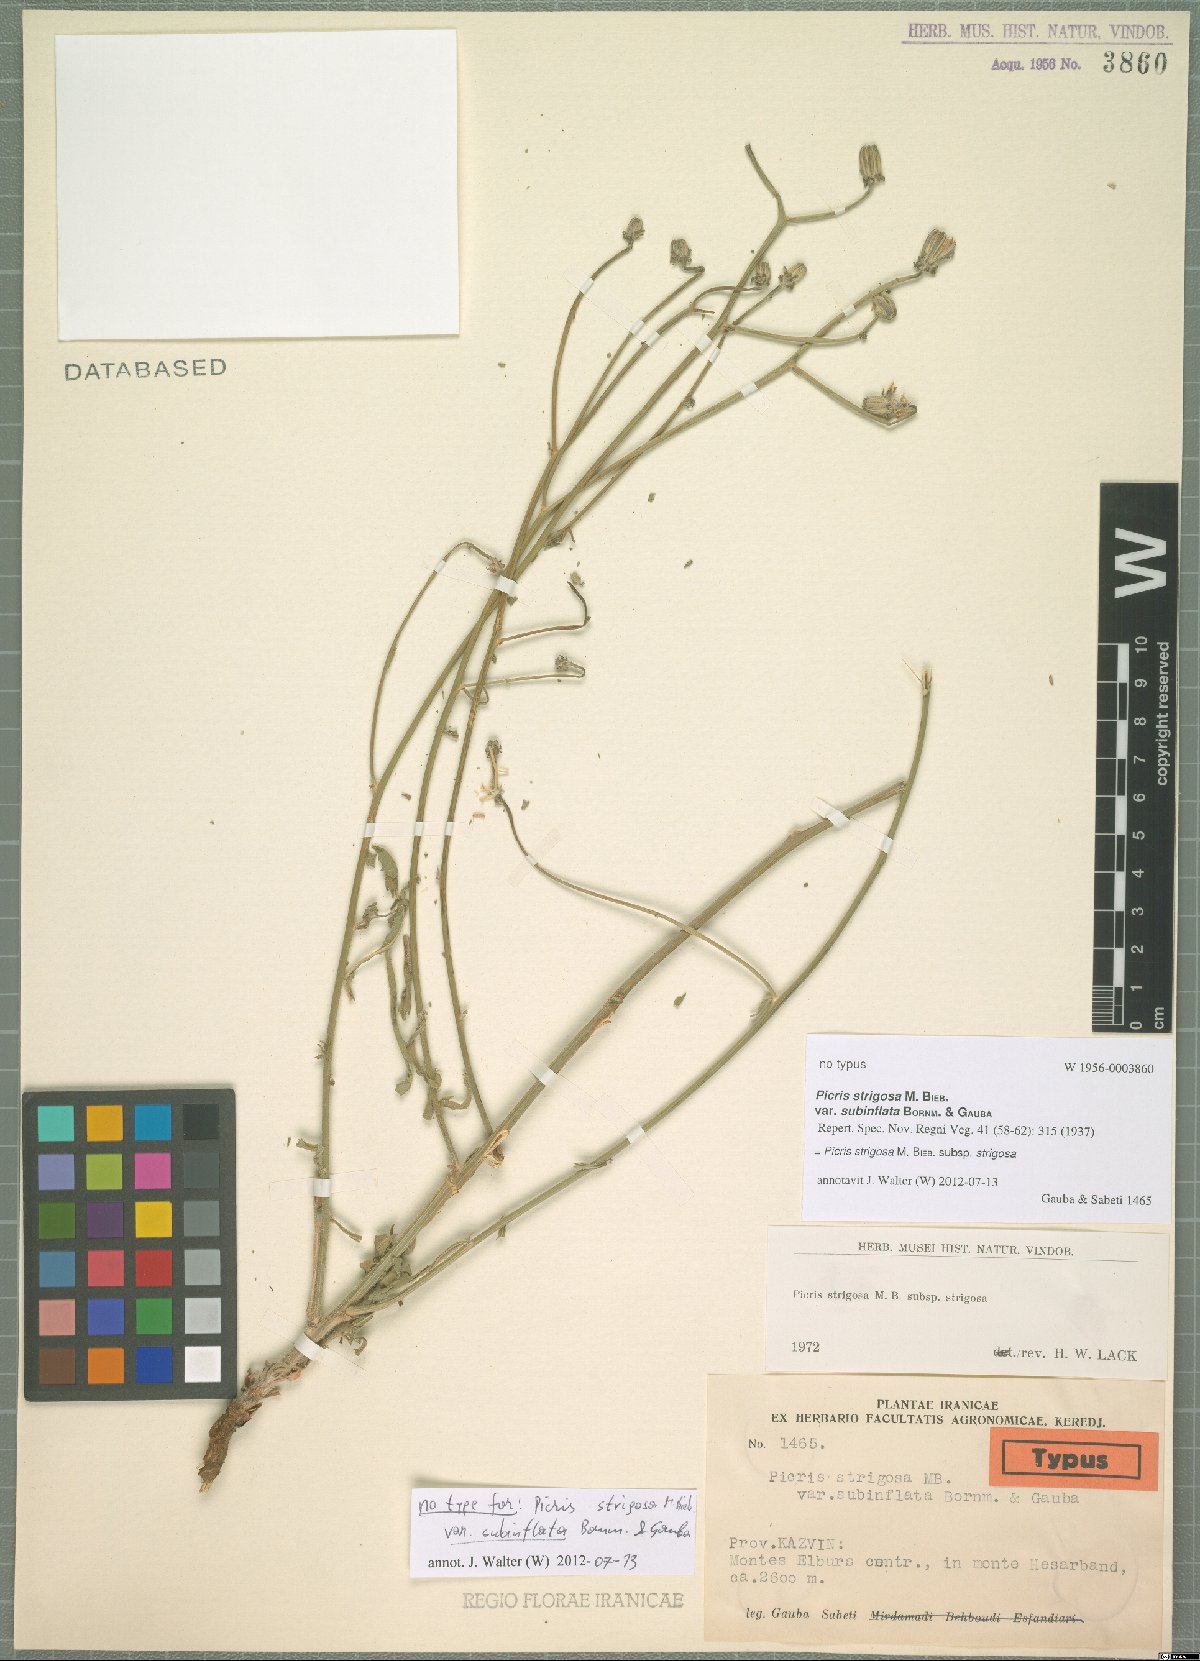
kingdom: Plantae
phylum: Tracheophyta
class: Magnoliopsida
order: Asterales
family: Asteraceae
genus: Picris
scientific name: Picris strigosa
